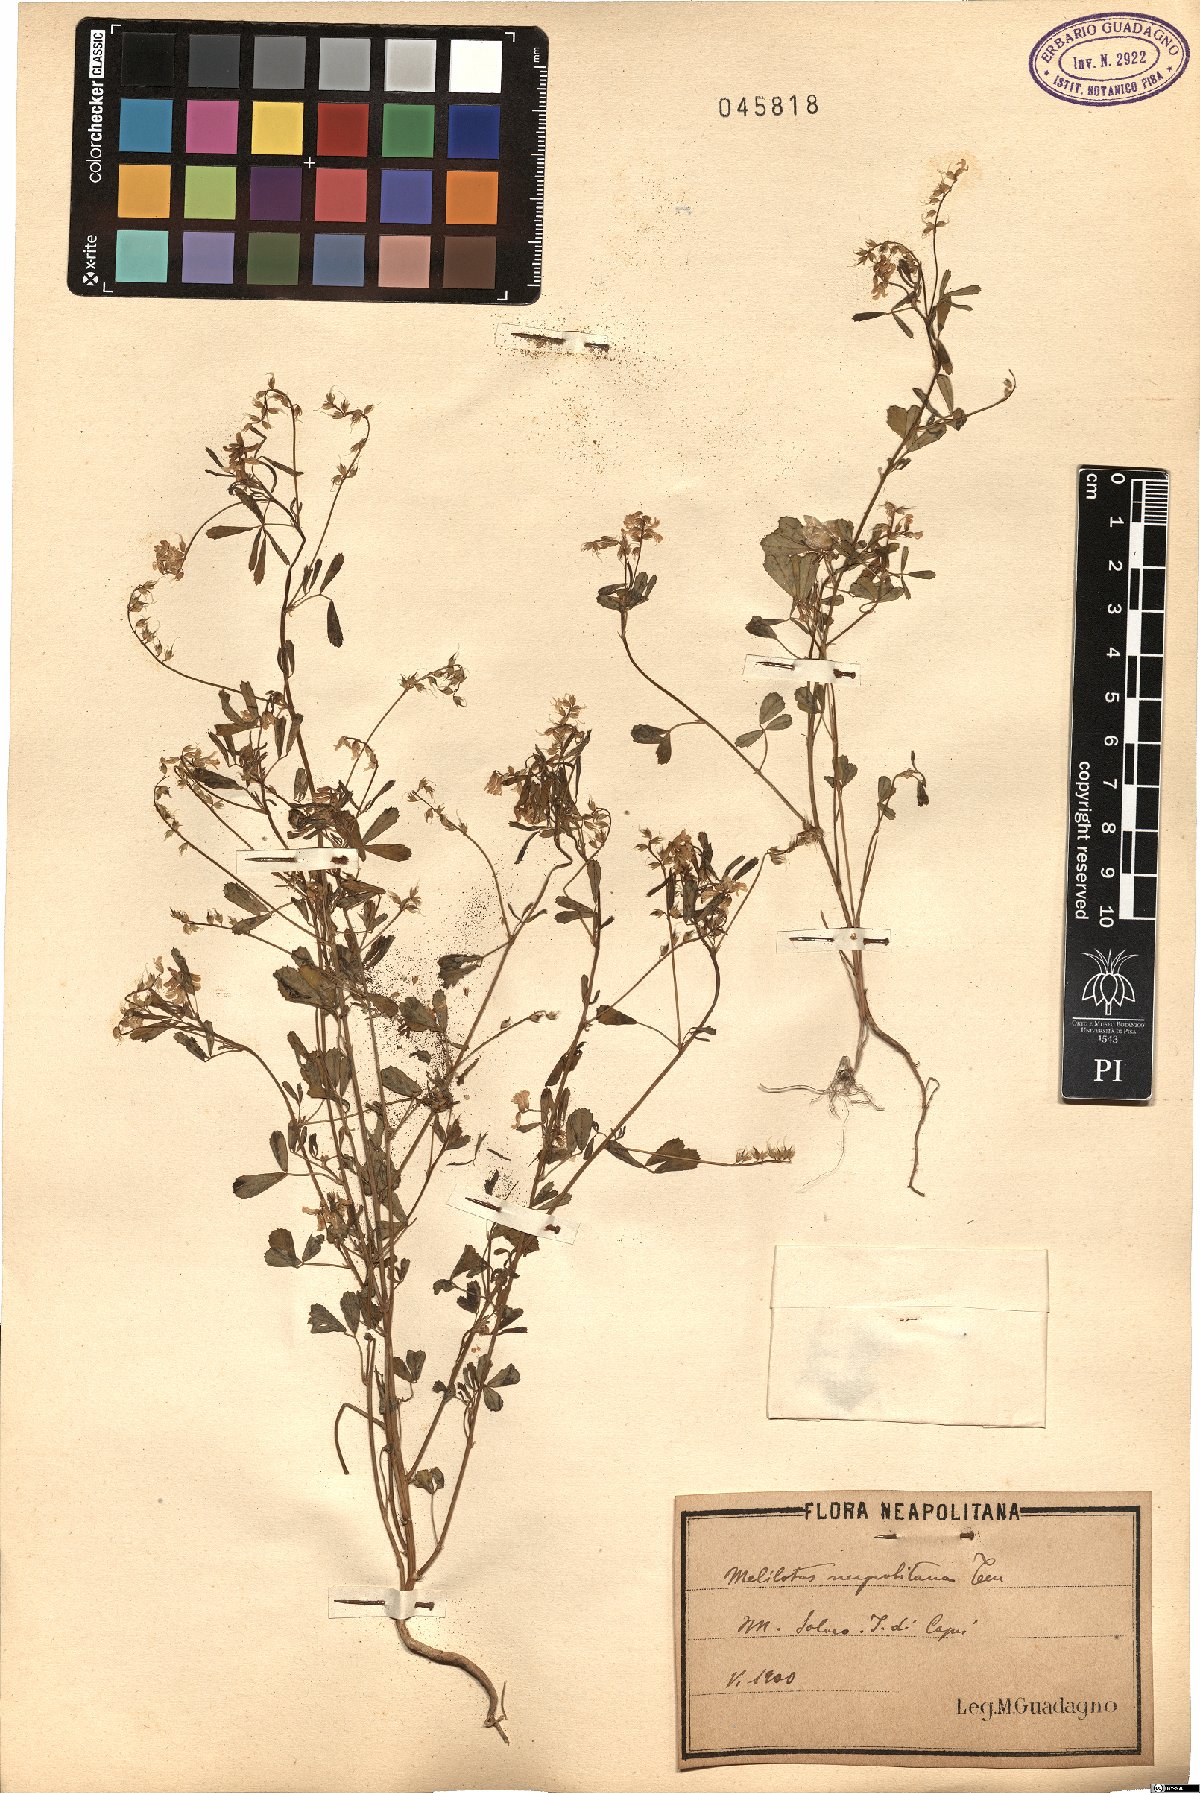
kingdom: Plantae
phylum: Tracheophyta
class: Magnoliopsida
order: Fabales
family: Fabaceae
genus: Melilotus
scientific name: Melilotus neapolitanus
